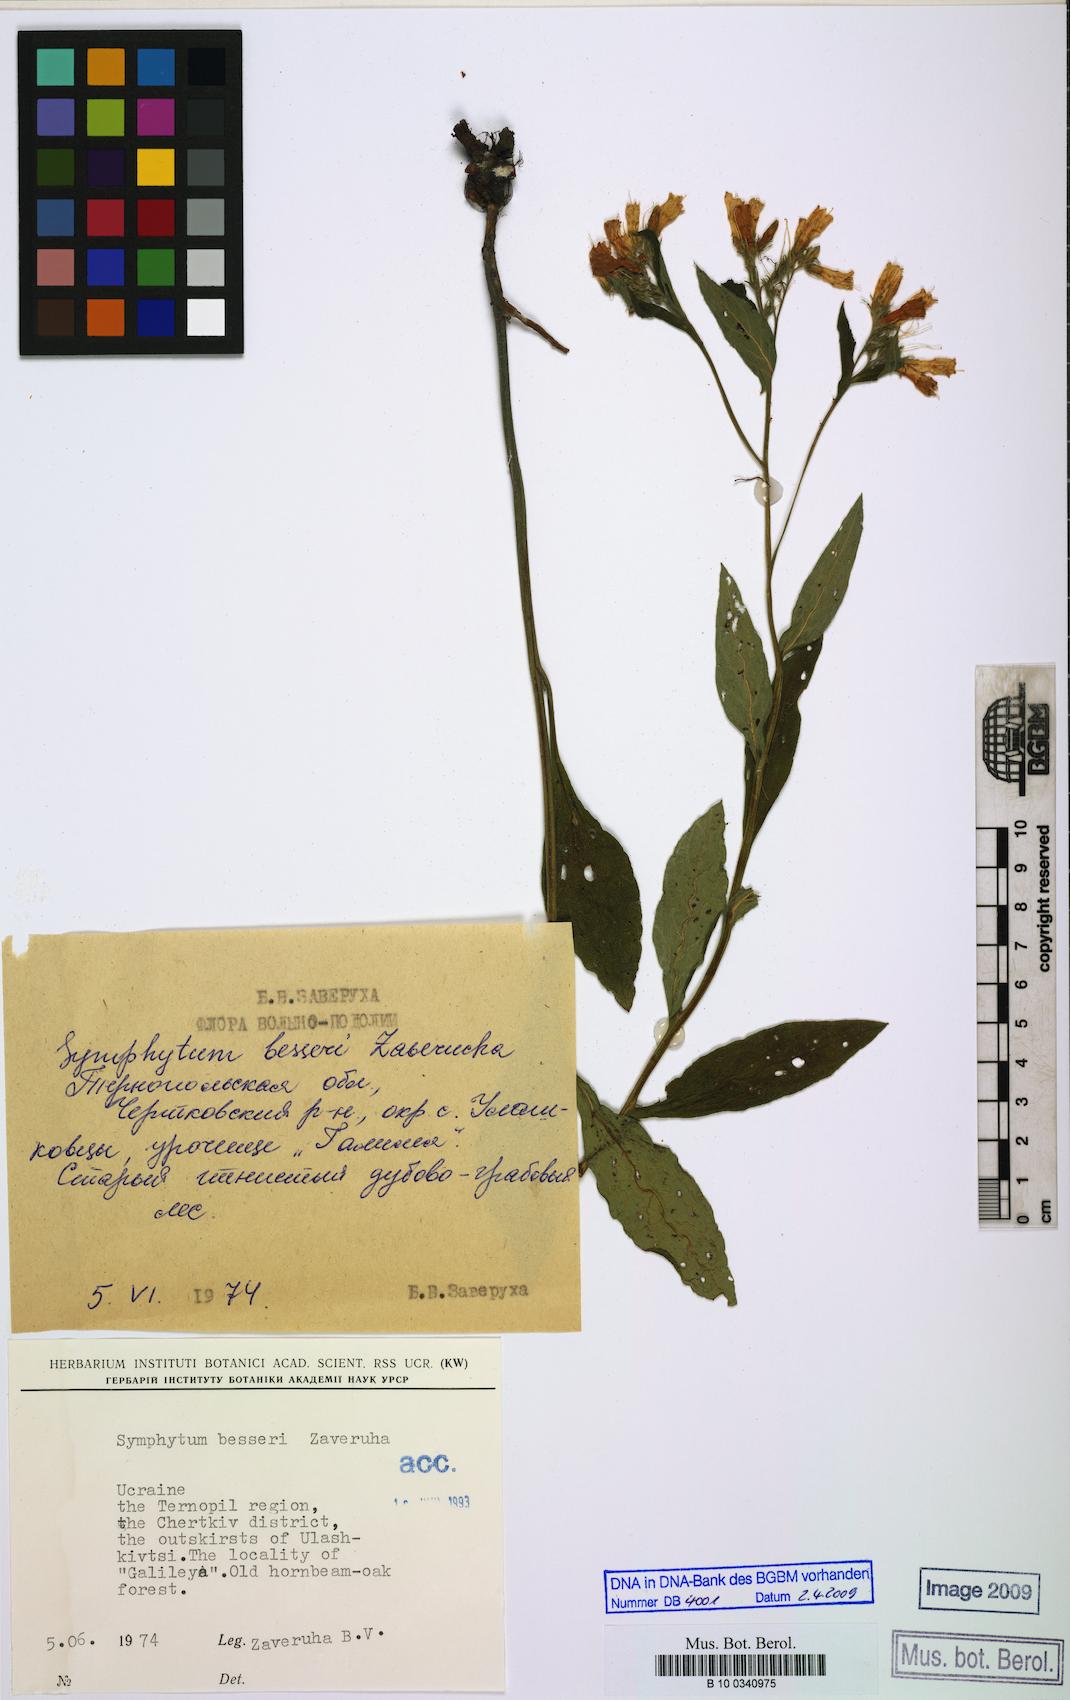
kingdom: Plantae
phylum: Tracheophyta
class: Magnoliopsida
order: Boraginales
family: Boraginaceae
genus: Symphytum
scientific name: Symphytum officinale
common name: Common comfrey
